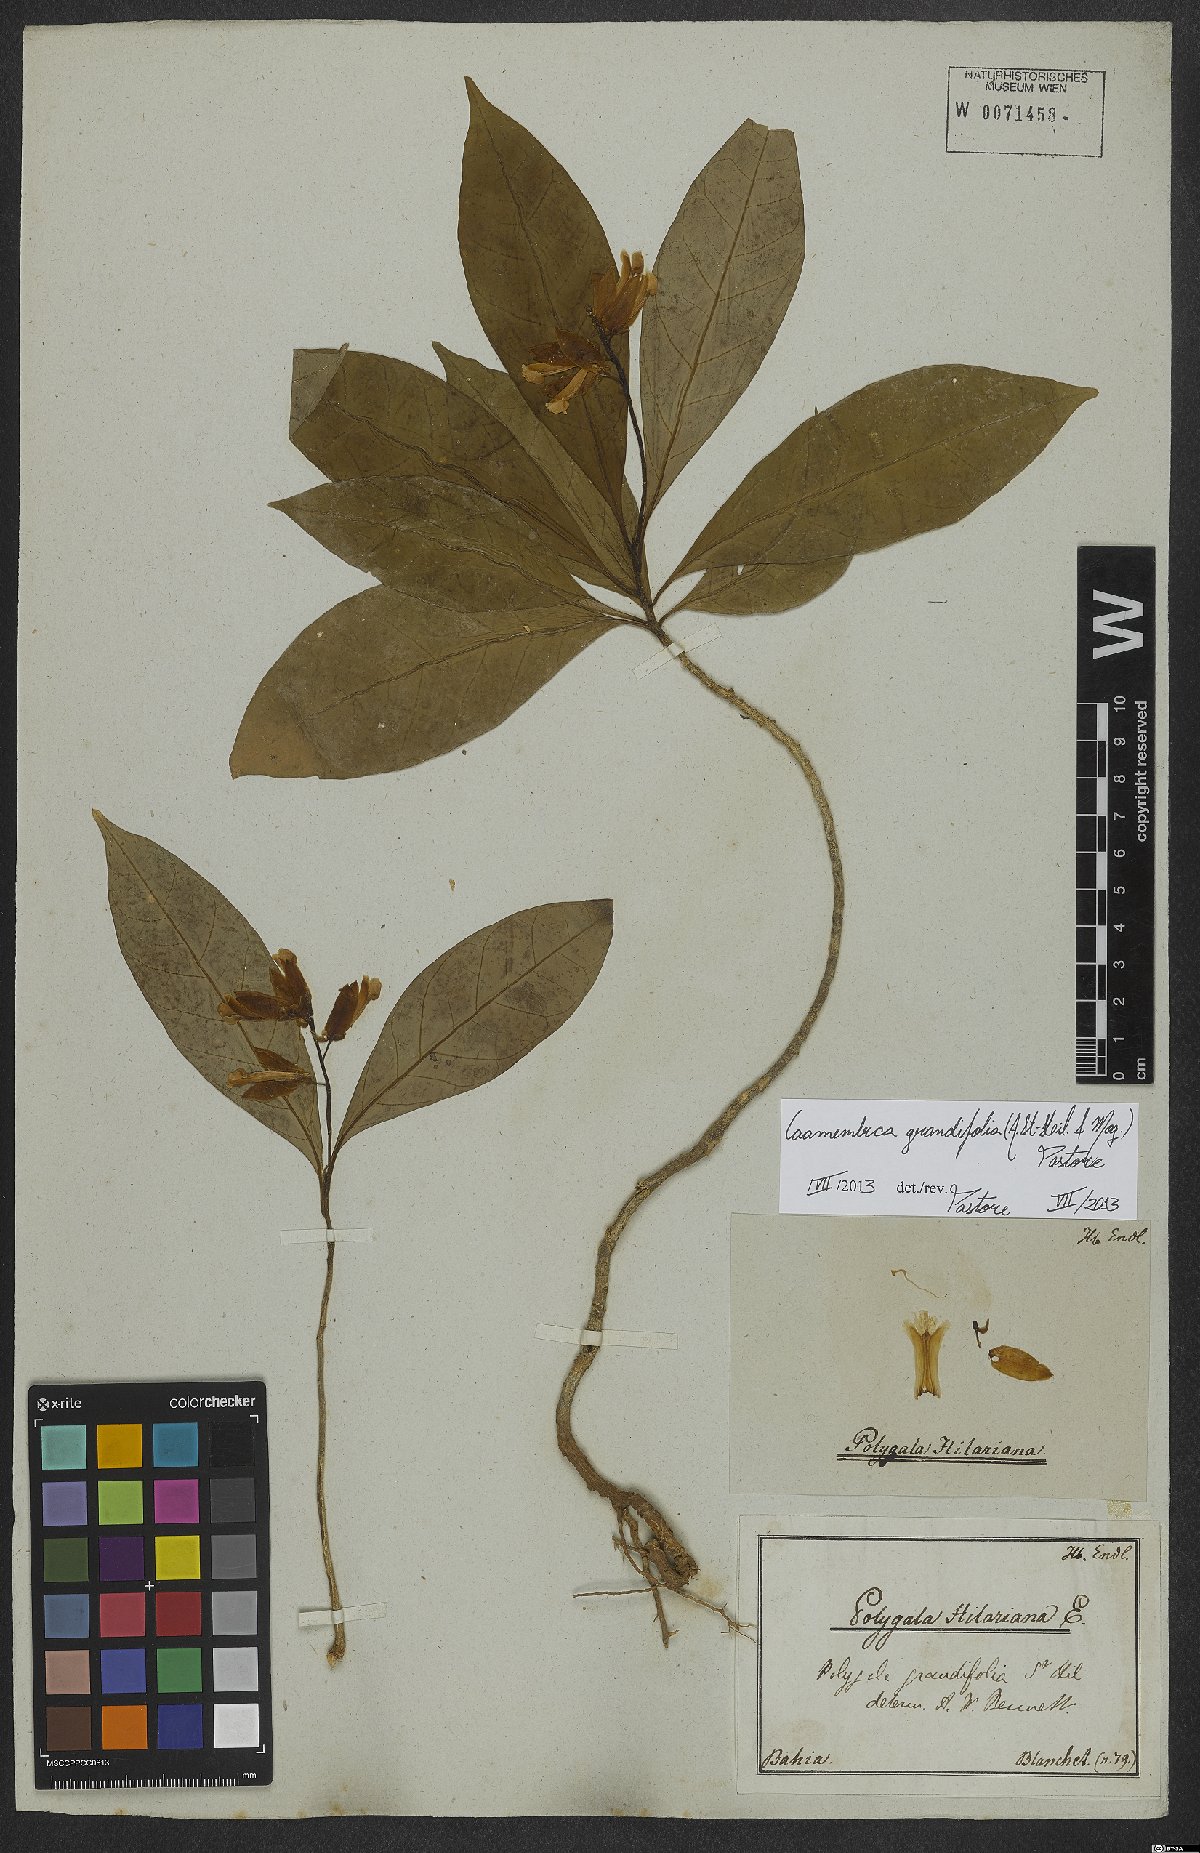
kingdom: Plantae
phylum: Tracheophyta
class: Magnoliopsida
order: Fabales
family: Polygalaceae
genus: Caamembeca
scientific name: Caamembeca grandifolia
